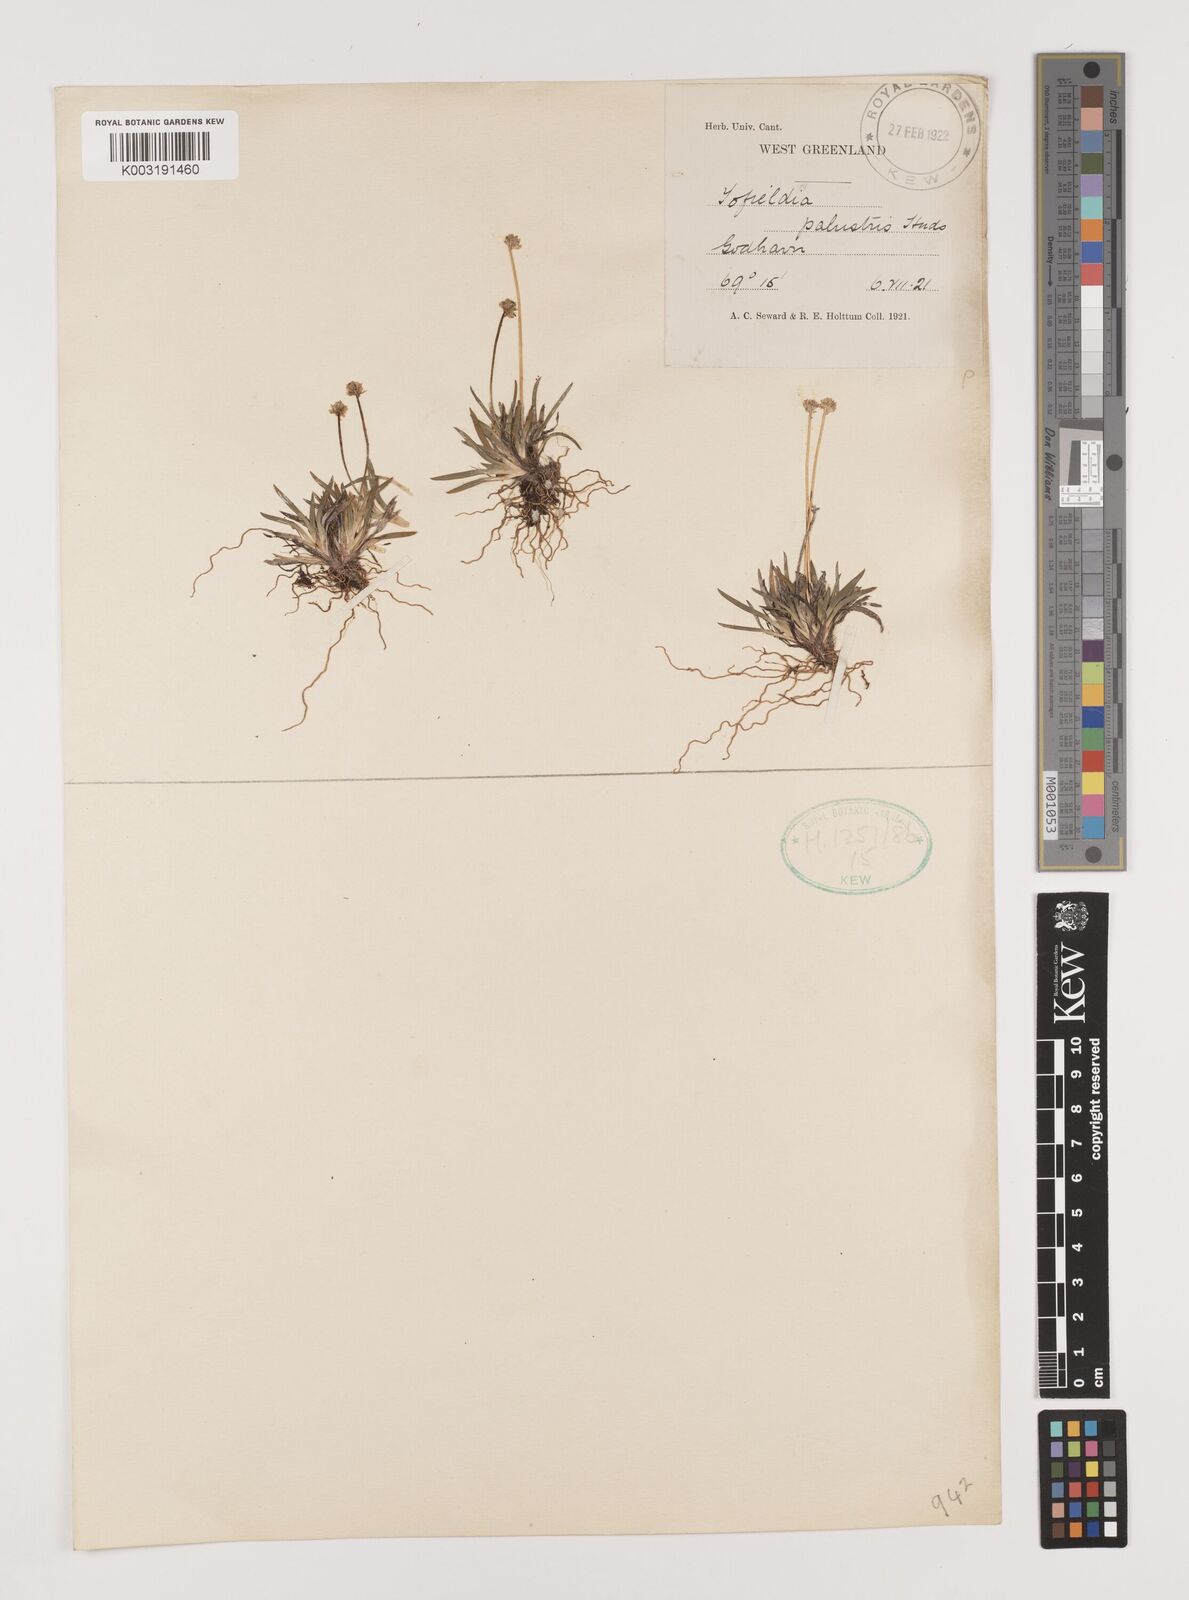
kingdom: Plantae
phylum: Tracheophyta
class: Liliopsida
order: Alismatales
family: Tofieldiaceae
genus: Tofieldia
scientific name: Tofieldia calyculata
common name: German-asphodel
